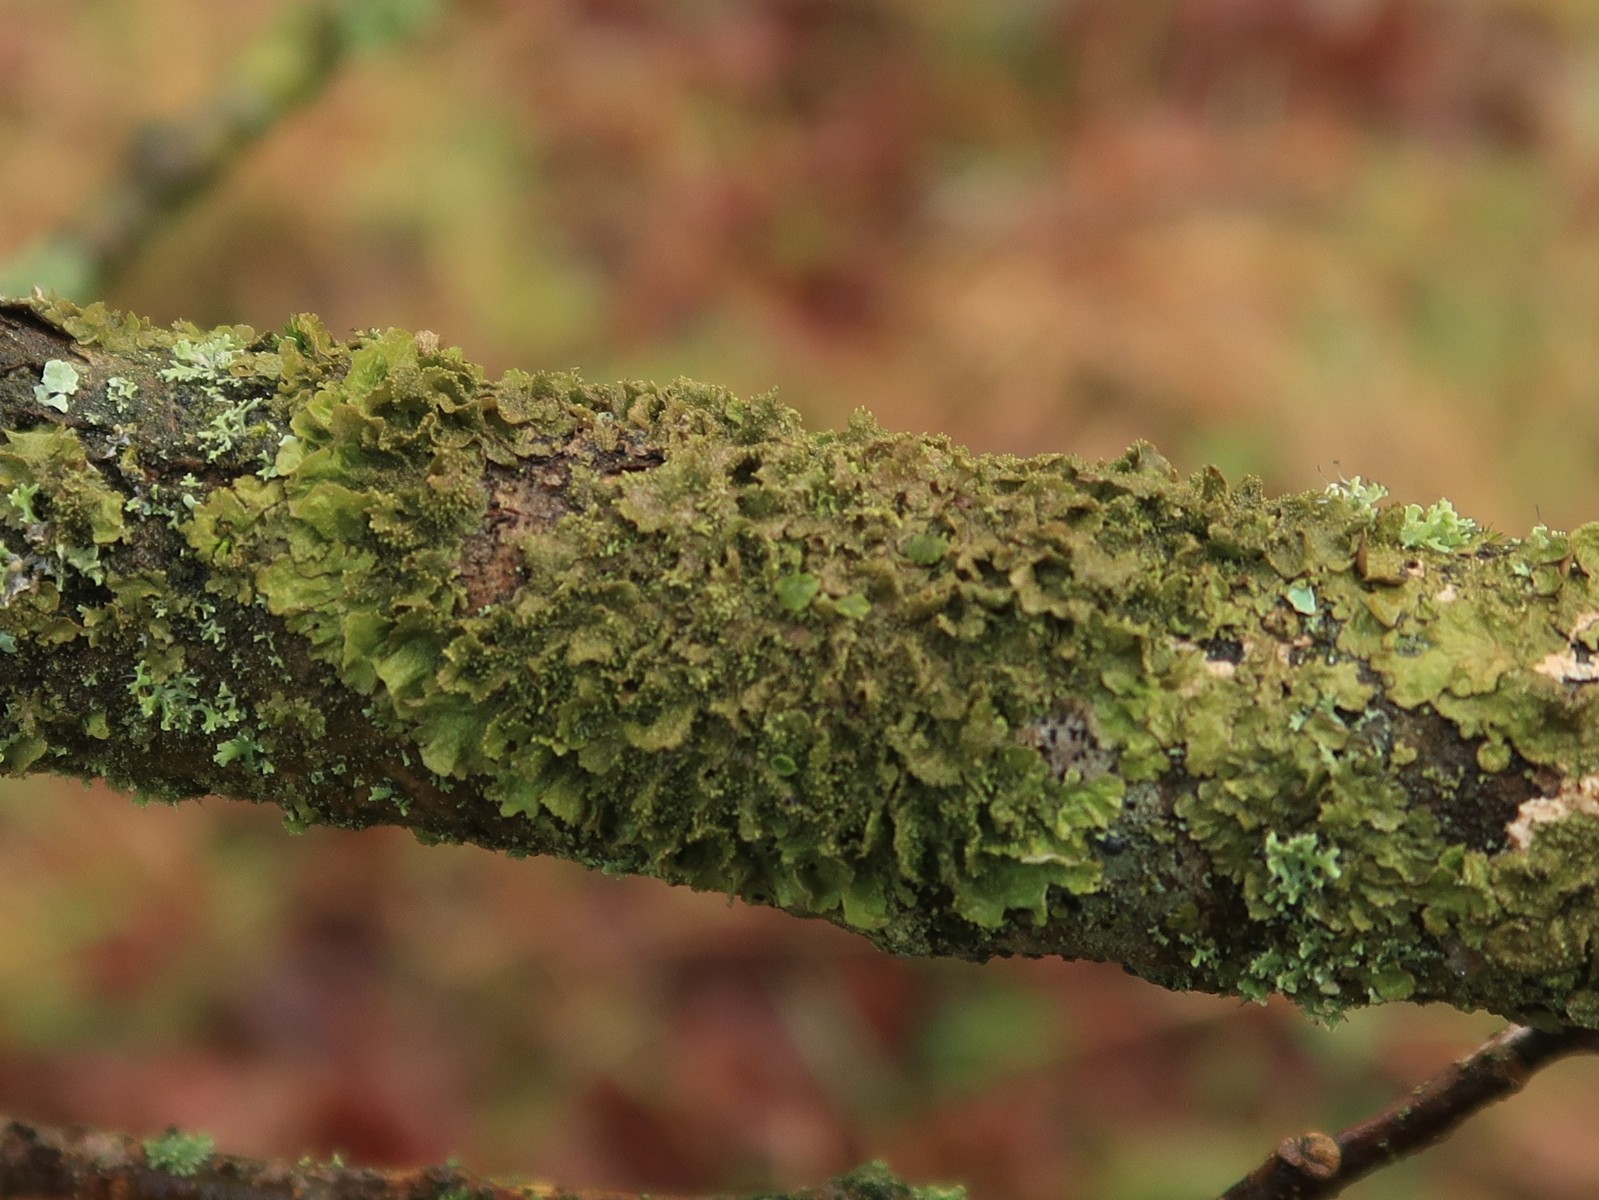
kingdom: Fungi
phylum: Ascomycota
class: Lecanoromycetes
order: Lecanorales
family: Parmeliaceae
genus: Melanohalea
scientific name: Melanohalea exasperatula
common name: kølle-skållav
